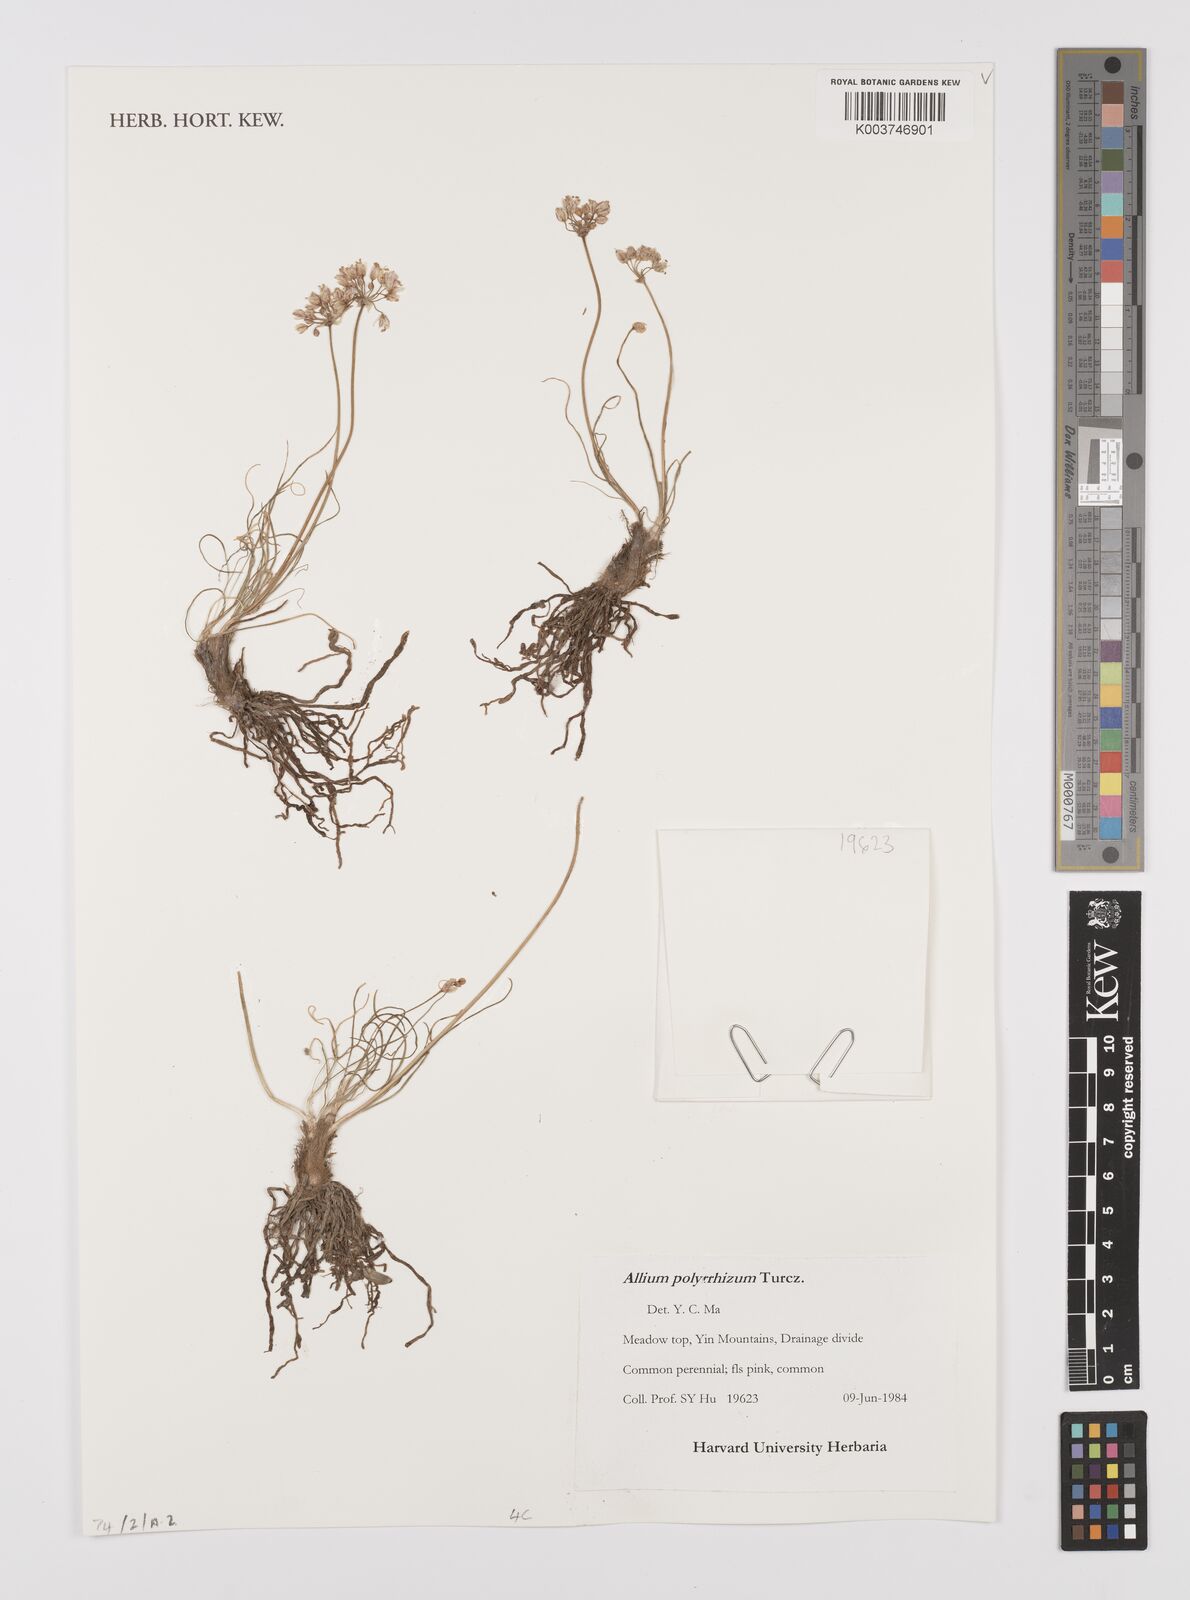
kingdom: Plantae
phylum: Tracheophyta
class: Liliopsida
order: Asparagales
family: Amaryllidaceae
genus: Allium
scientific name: Allium polyrhizum
